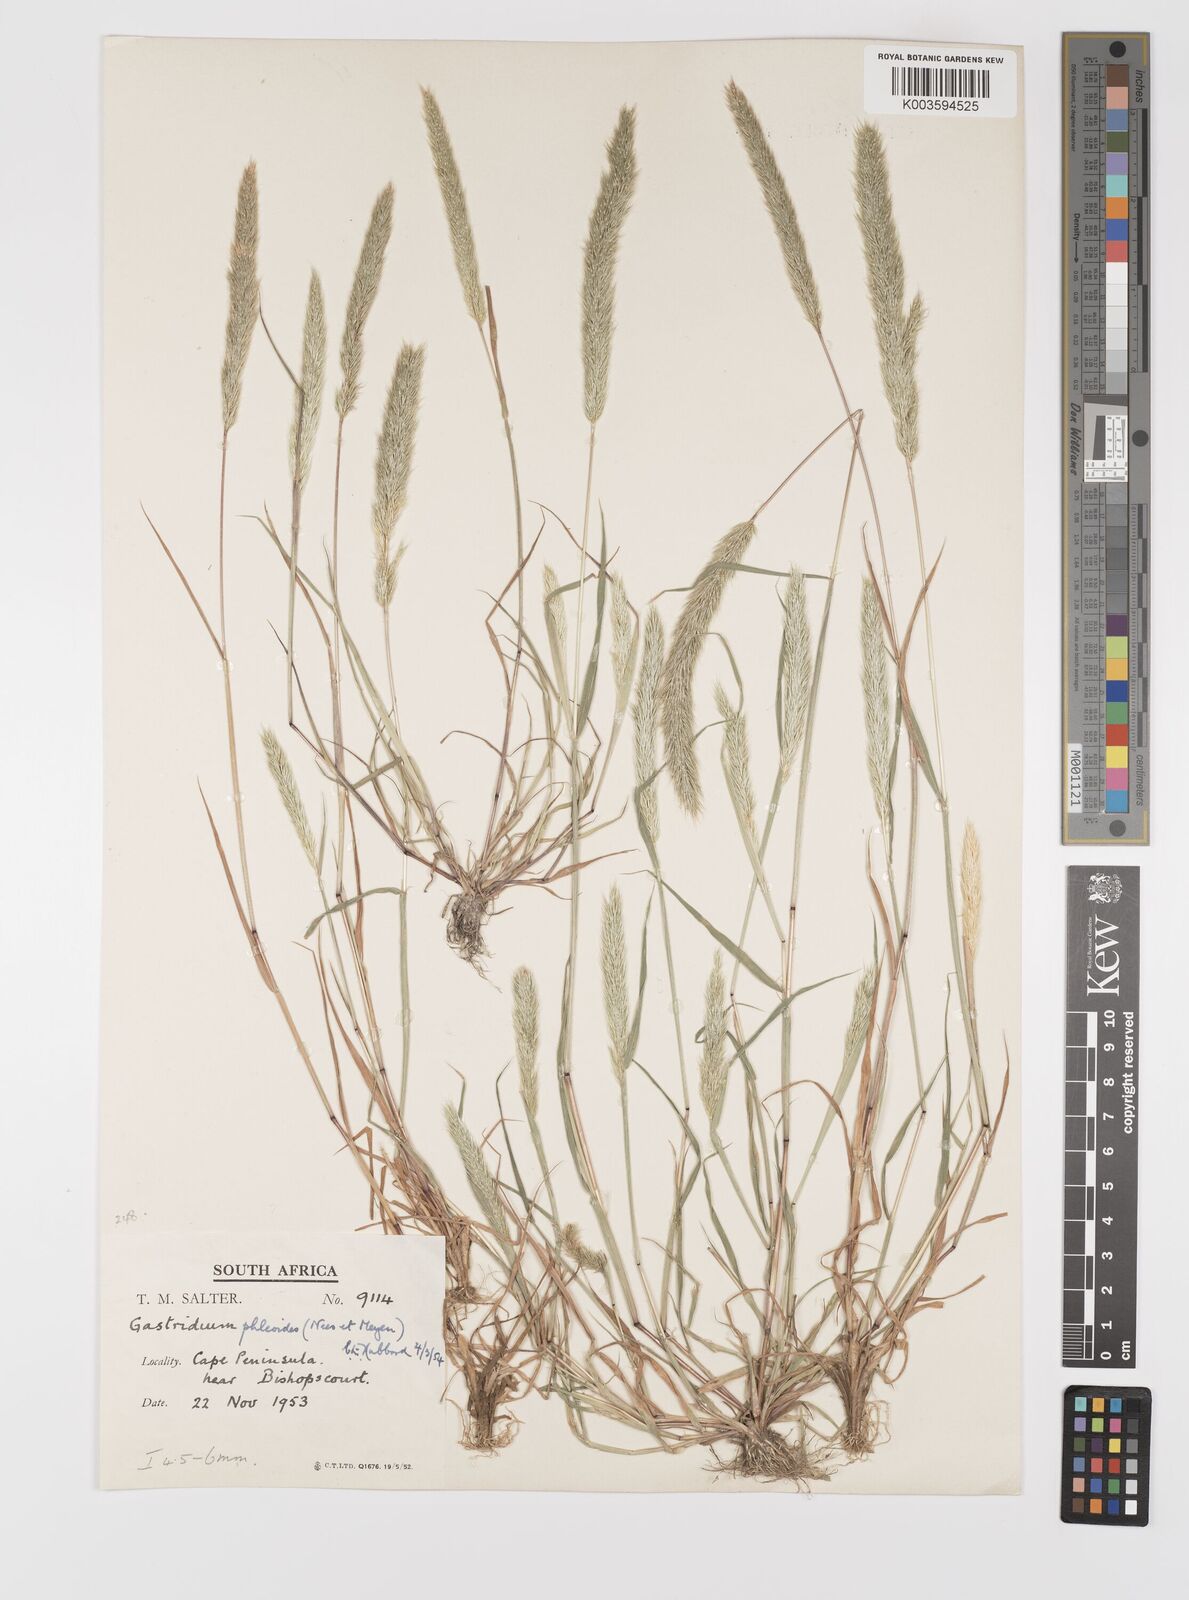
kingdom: Plantae
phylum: Tracheophyta
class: Liliopsida
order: Poales
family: Poaceae
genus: Gastridium
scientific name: Gastridium phleoides
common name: Nit grass
